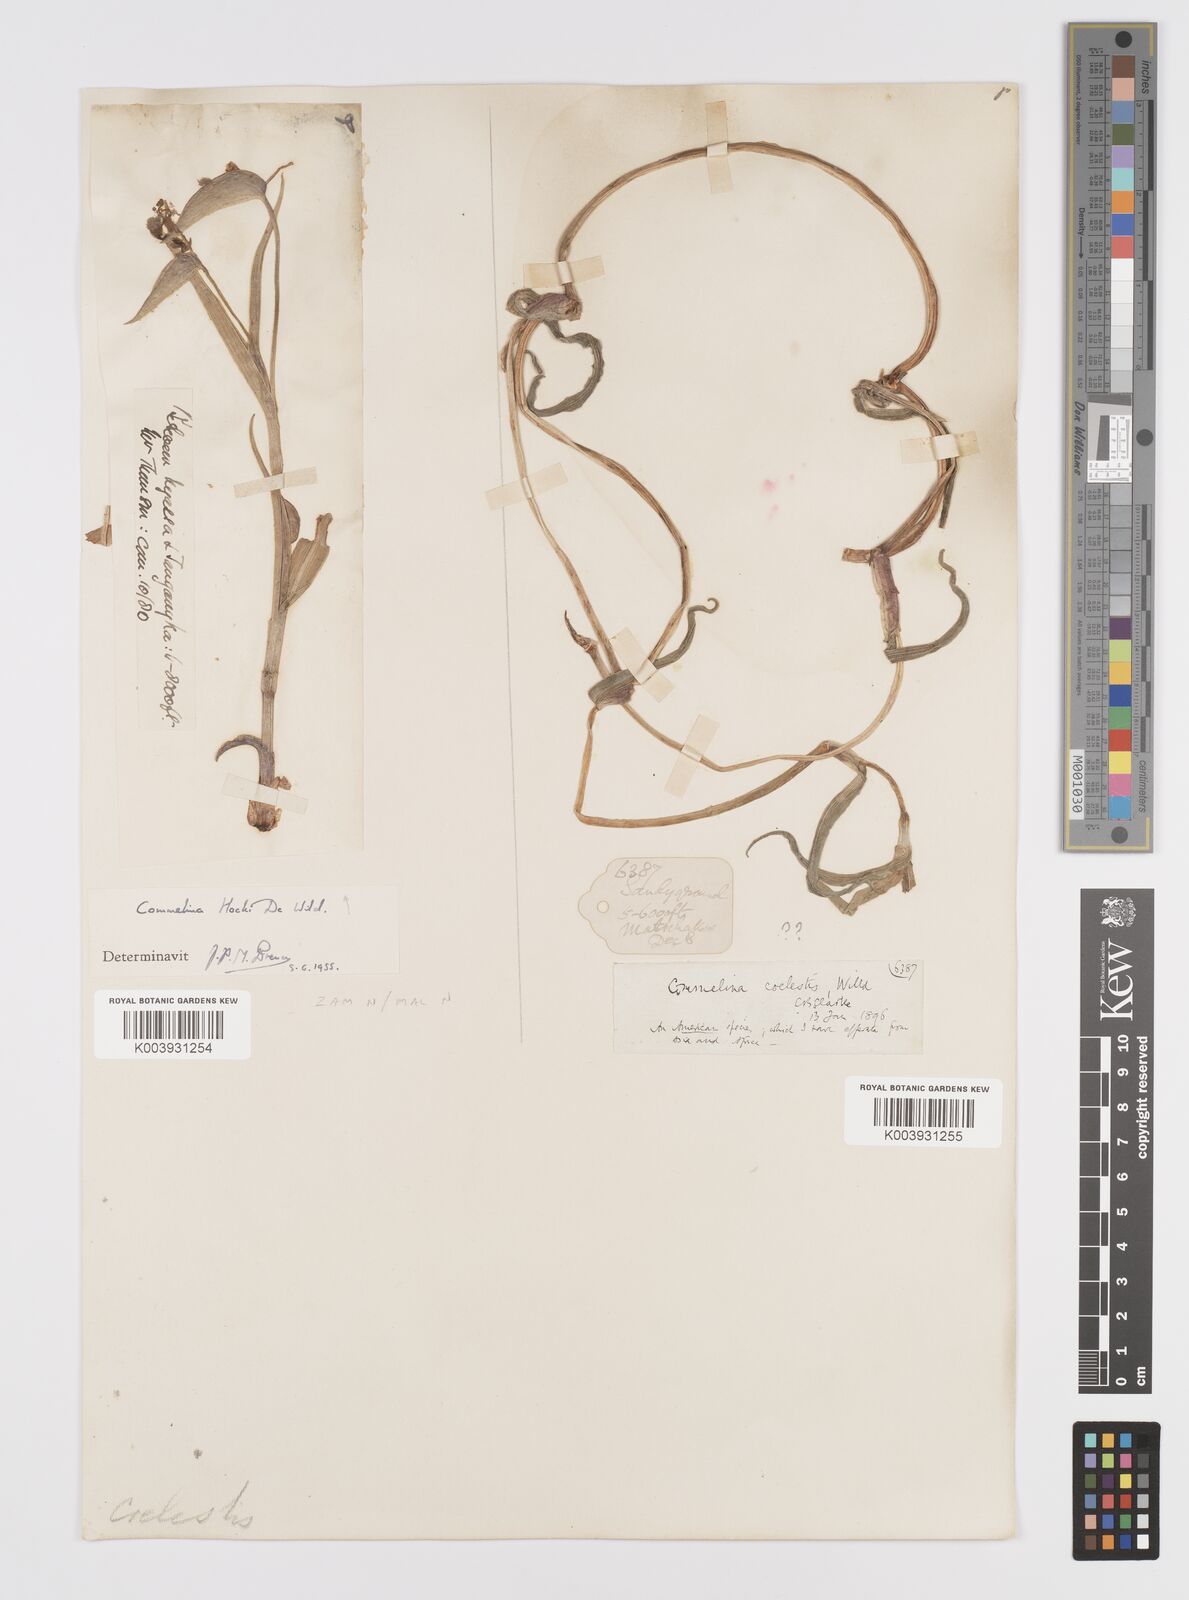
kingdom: Plantae
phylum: Tracheophyta
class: Liliopsida
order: Commelinales
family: Commelinaceae
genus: Commelina
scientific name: Commelina hockii
